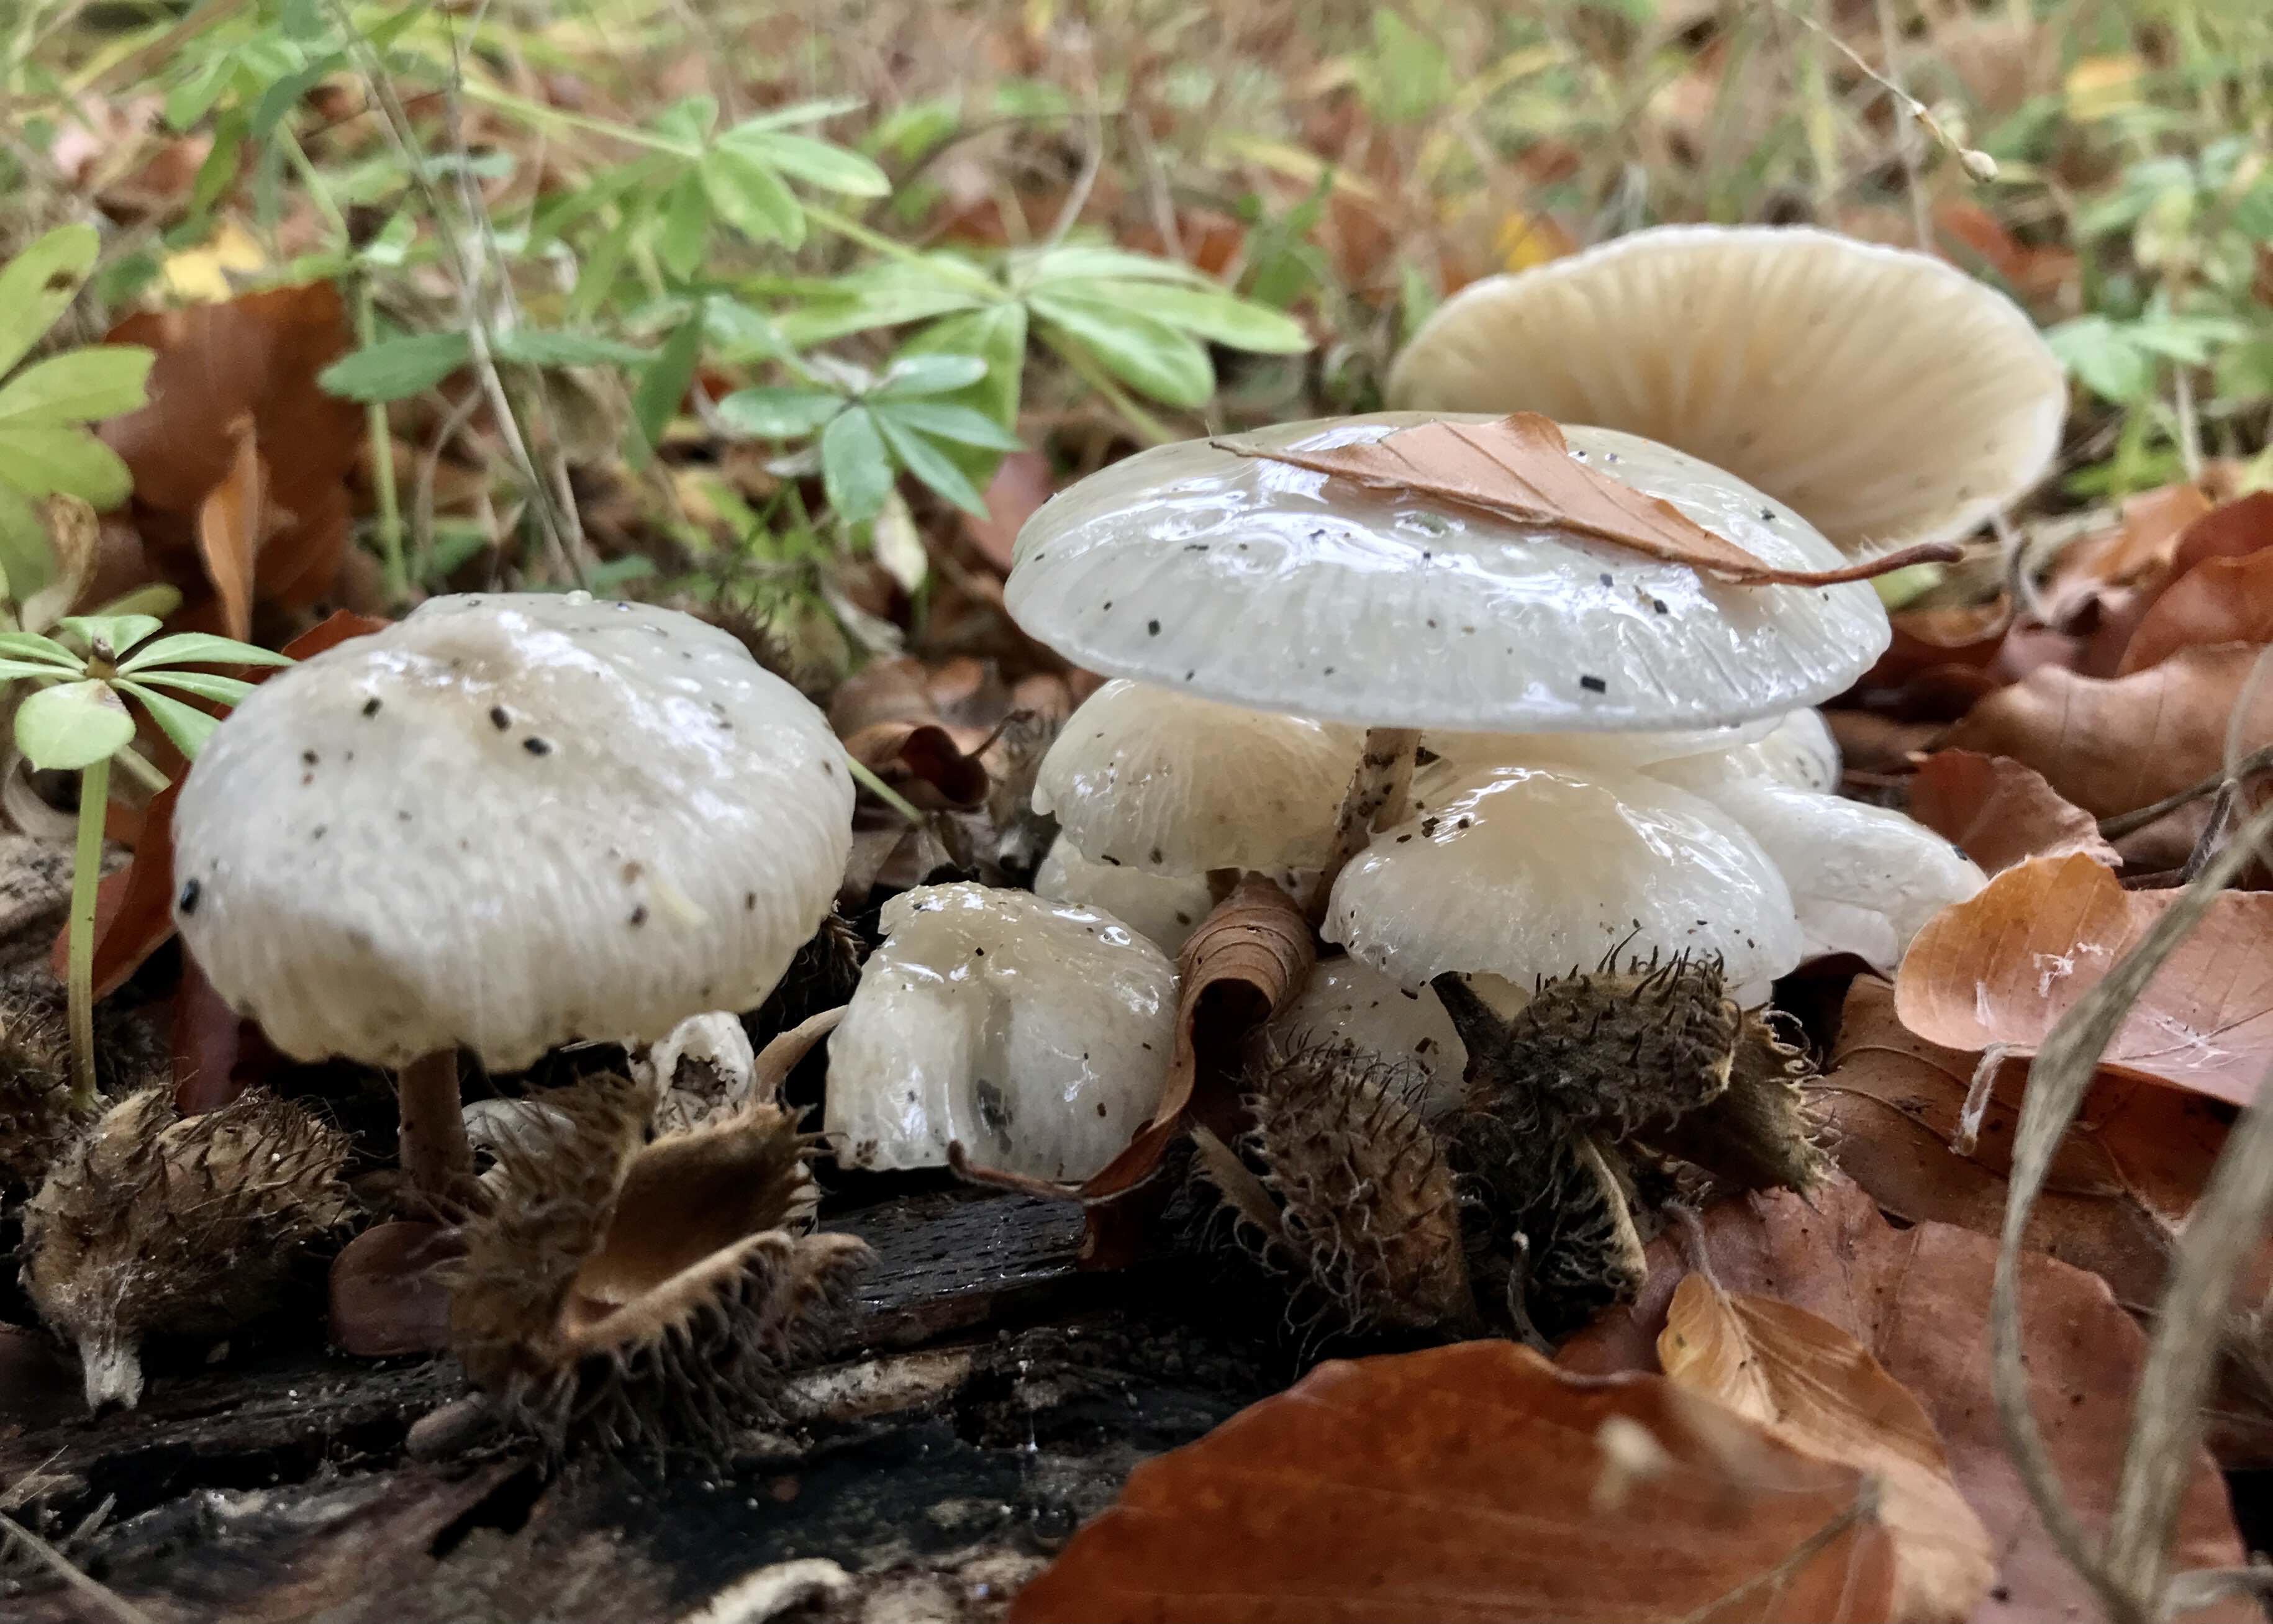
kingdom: Fungi
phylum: Basidiomycota
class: Agaricomycetes
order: Agaricales
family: Physalacriaceae
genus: Mucidula
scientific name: Mucidula mucida
